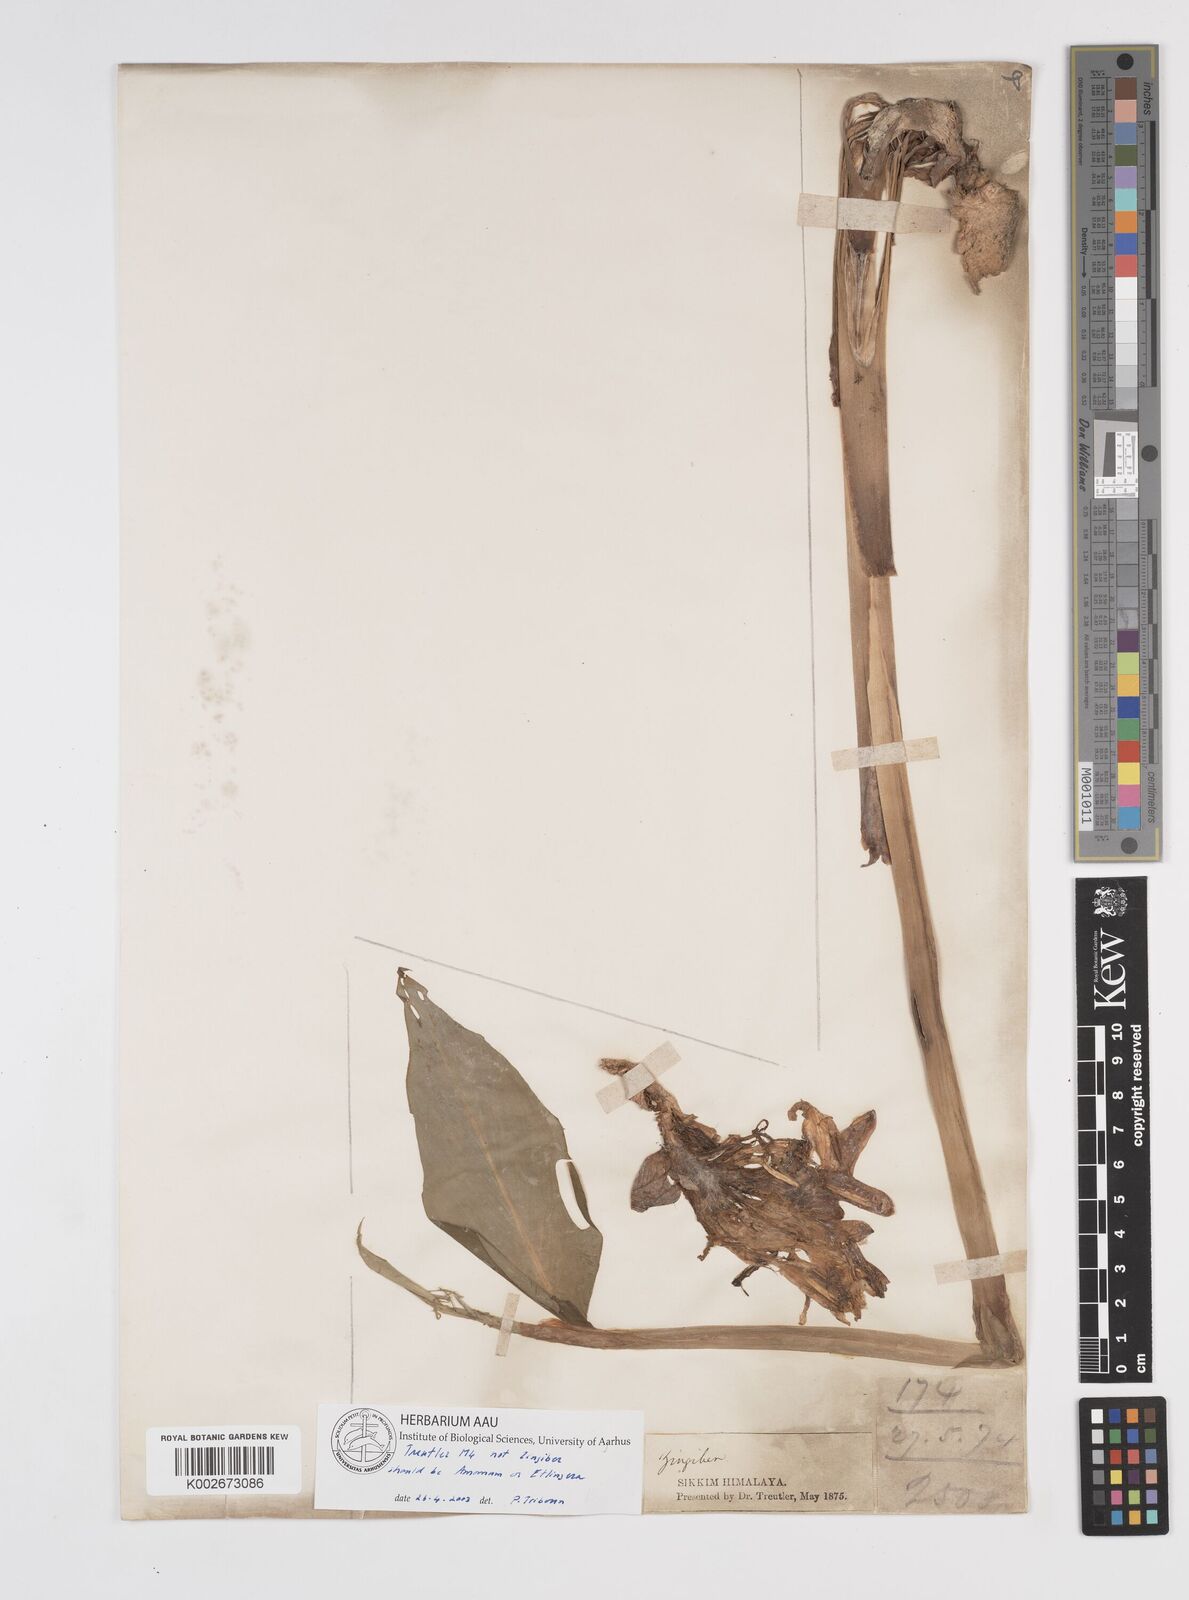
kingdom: Plantae
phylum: Tracheophyta
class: Liliopsida
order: Zingiberales
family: Zingiberaceae
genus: Amomum
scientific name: Amomum
